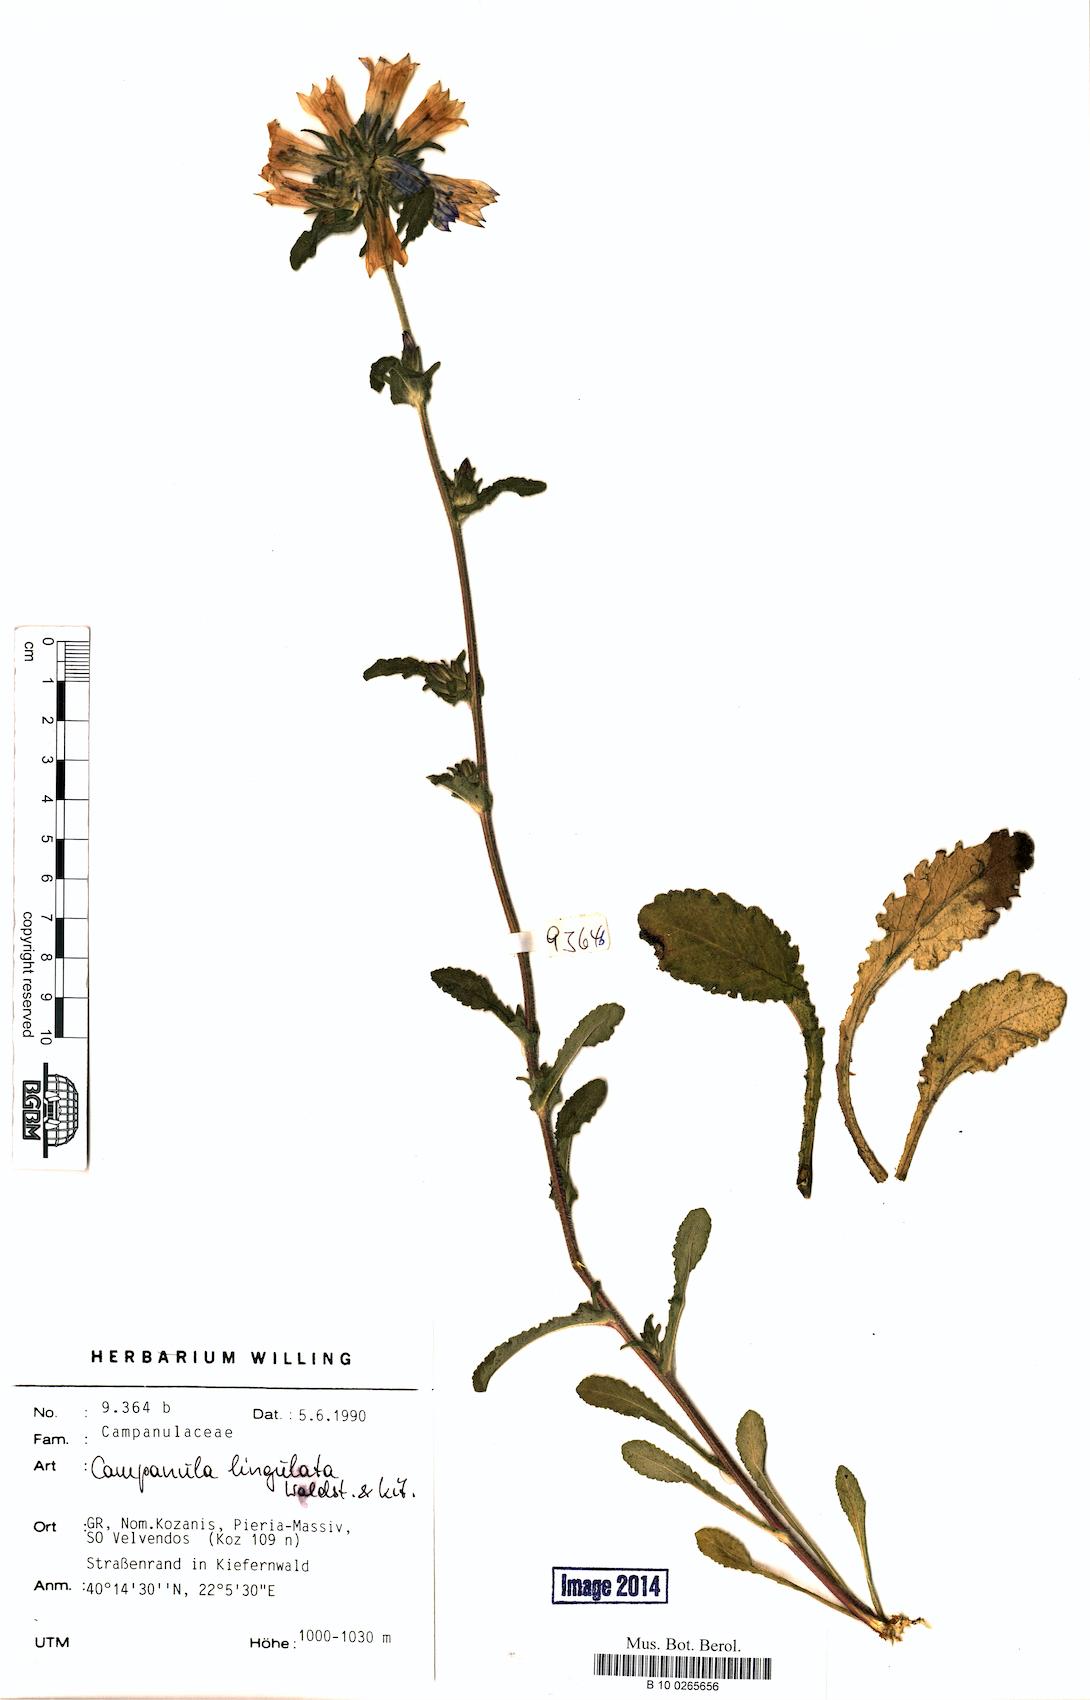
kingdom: Plantae
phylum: Tracheophyta
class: Magnoliopsida
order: Asterales
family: Campanulaceae
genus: Campanula
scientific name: Campanula lingulata
